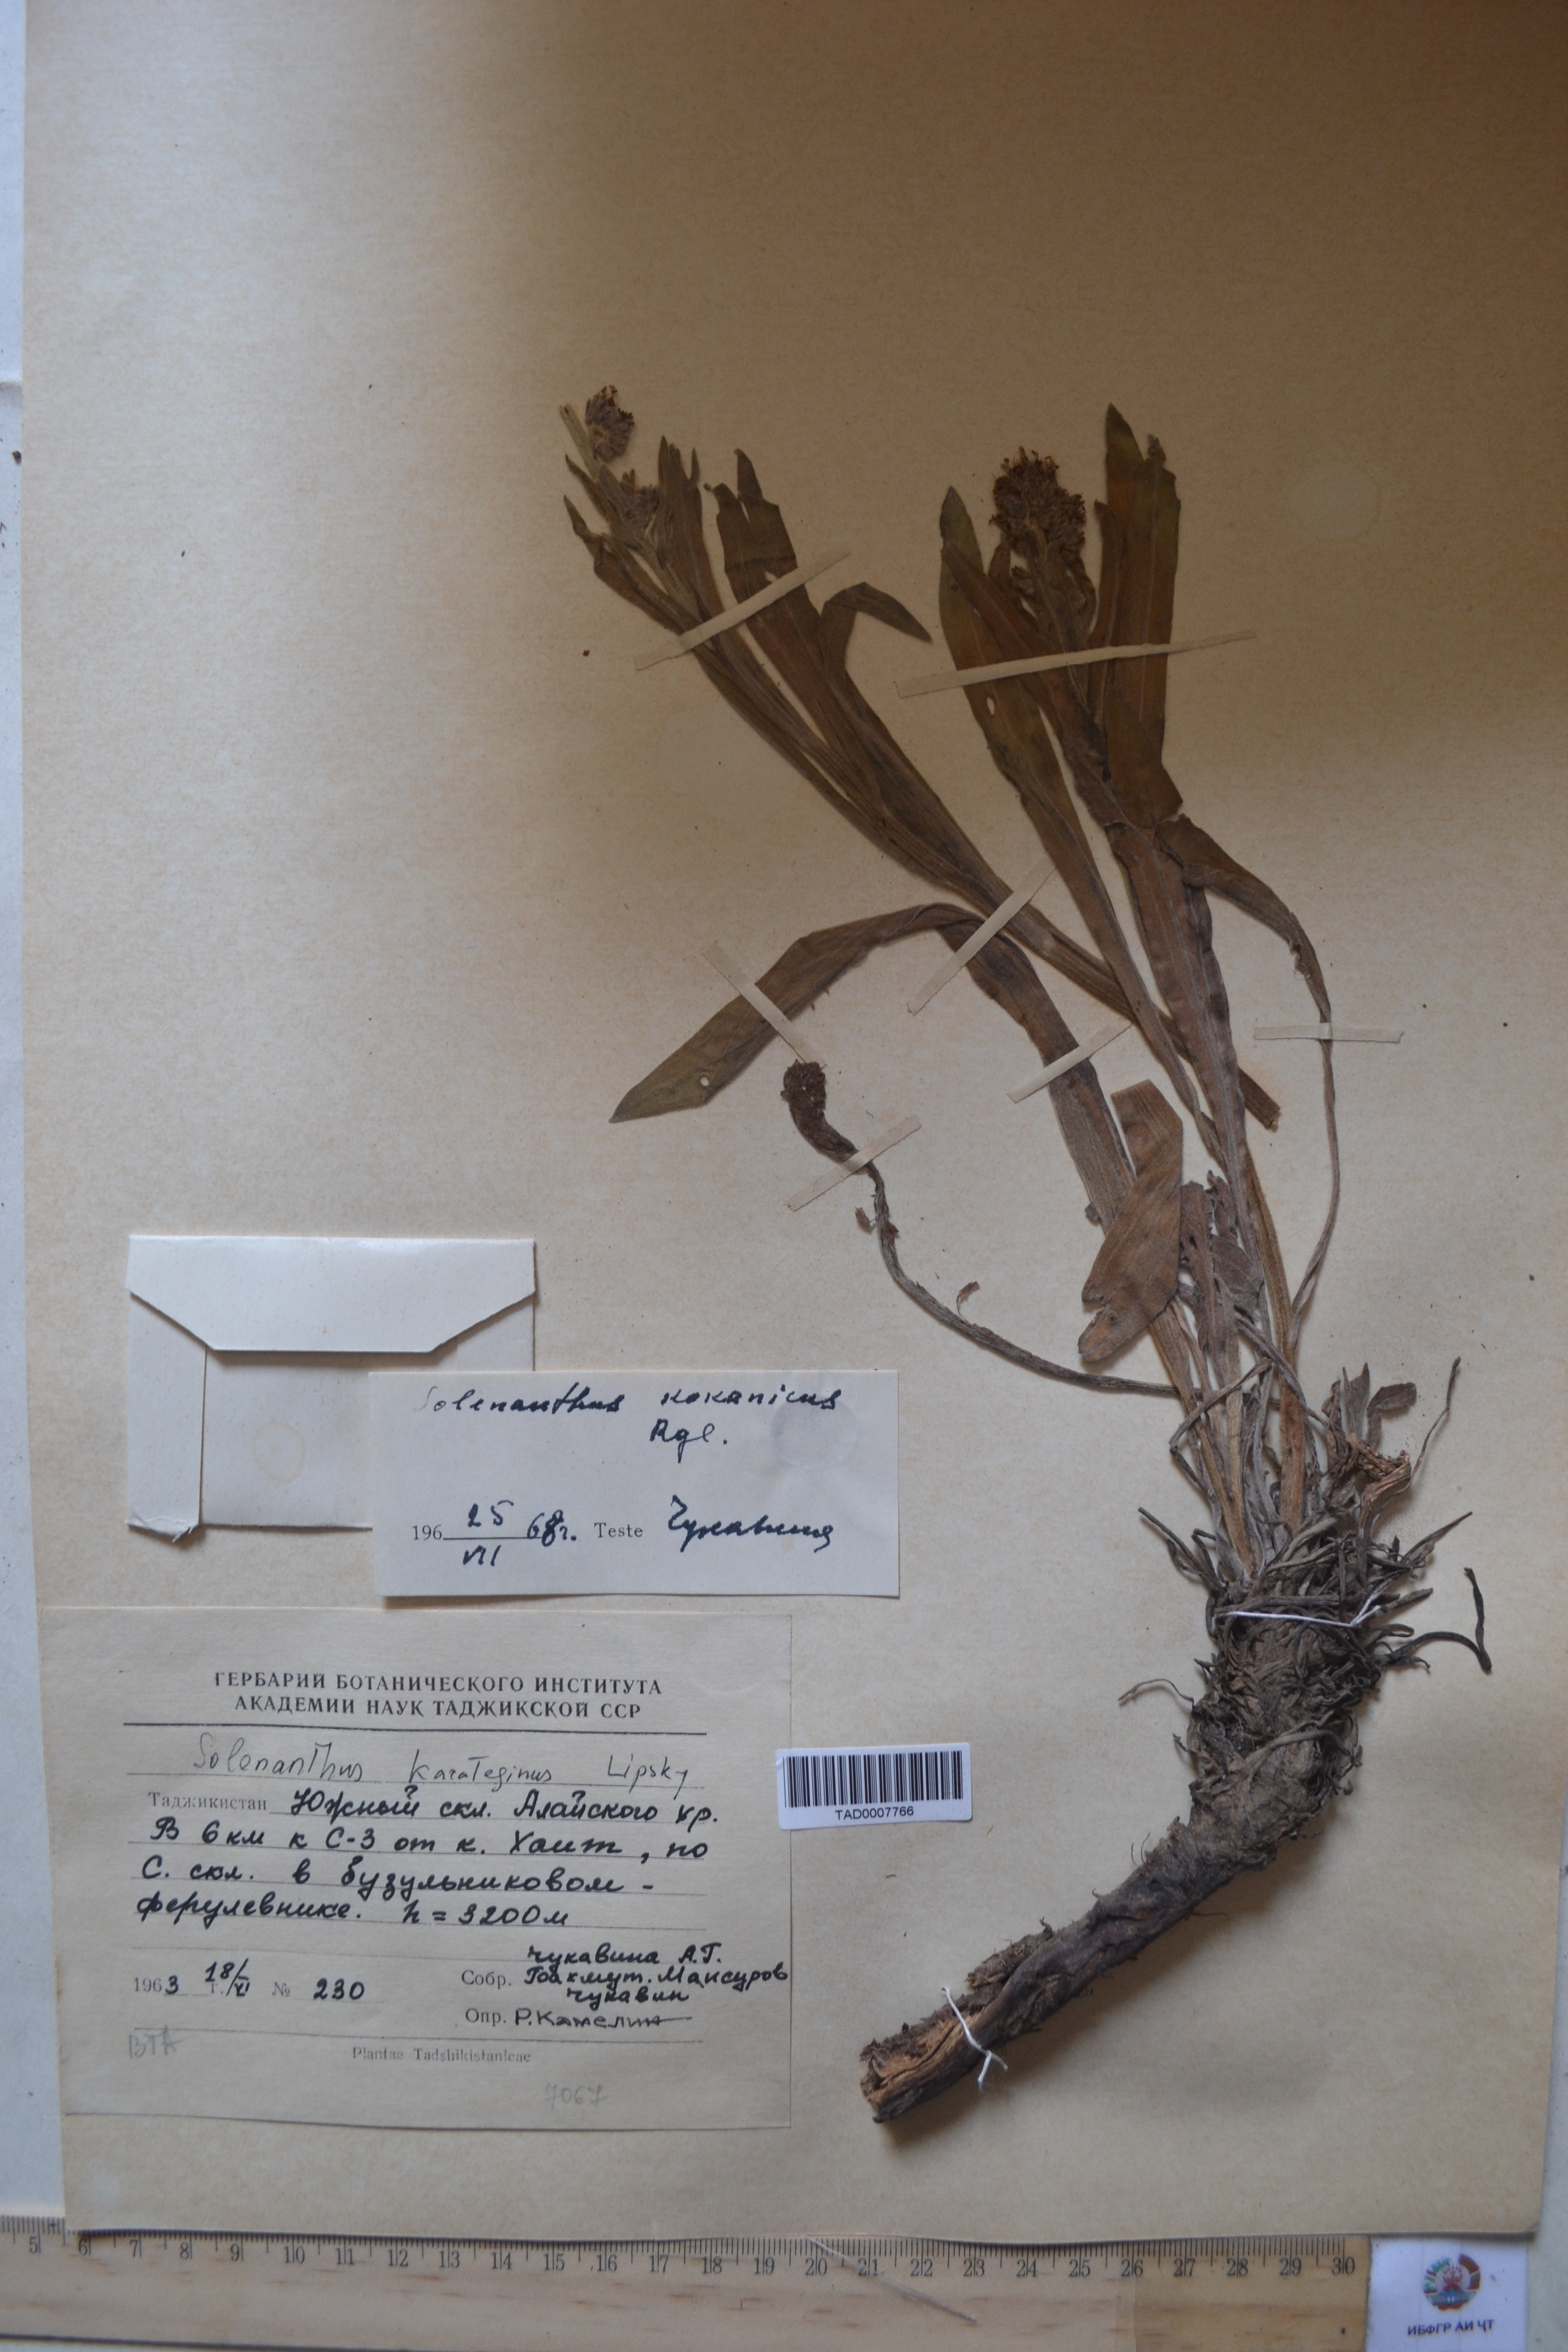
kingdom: Plantae
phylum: Tracheophyta
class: Magnoliopsida
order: Boraginales
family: Boraginaceae
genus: Solenanthus
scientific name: Solenanthus kokanicus
